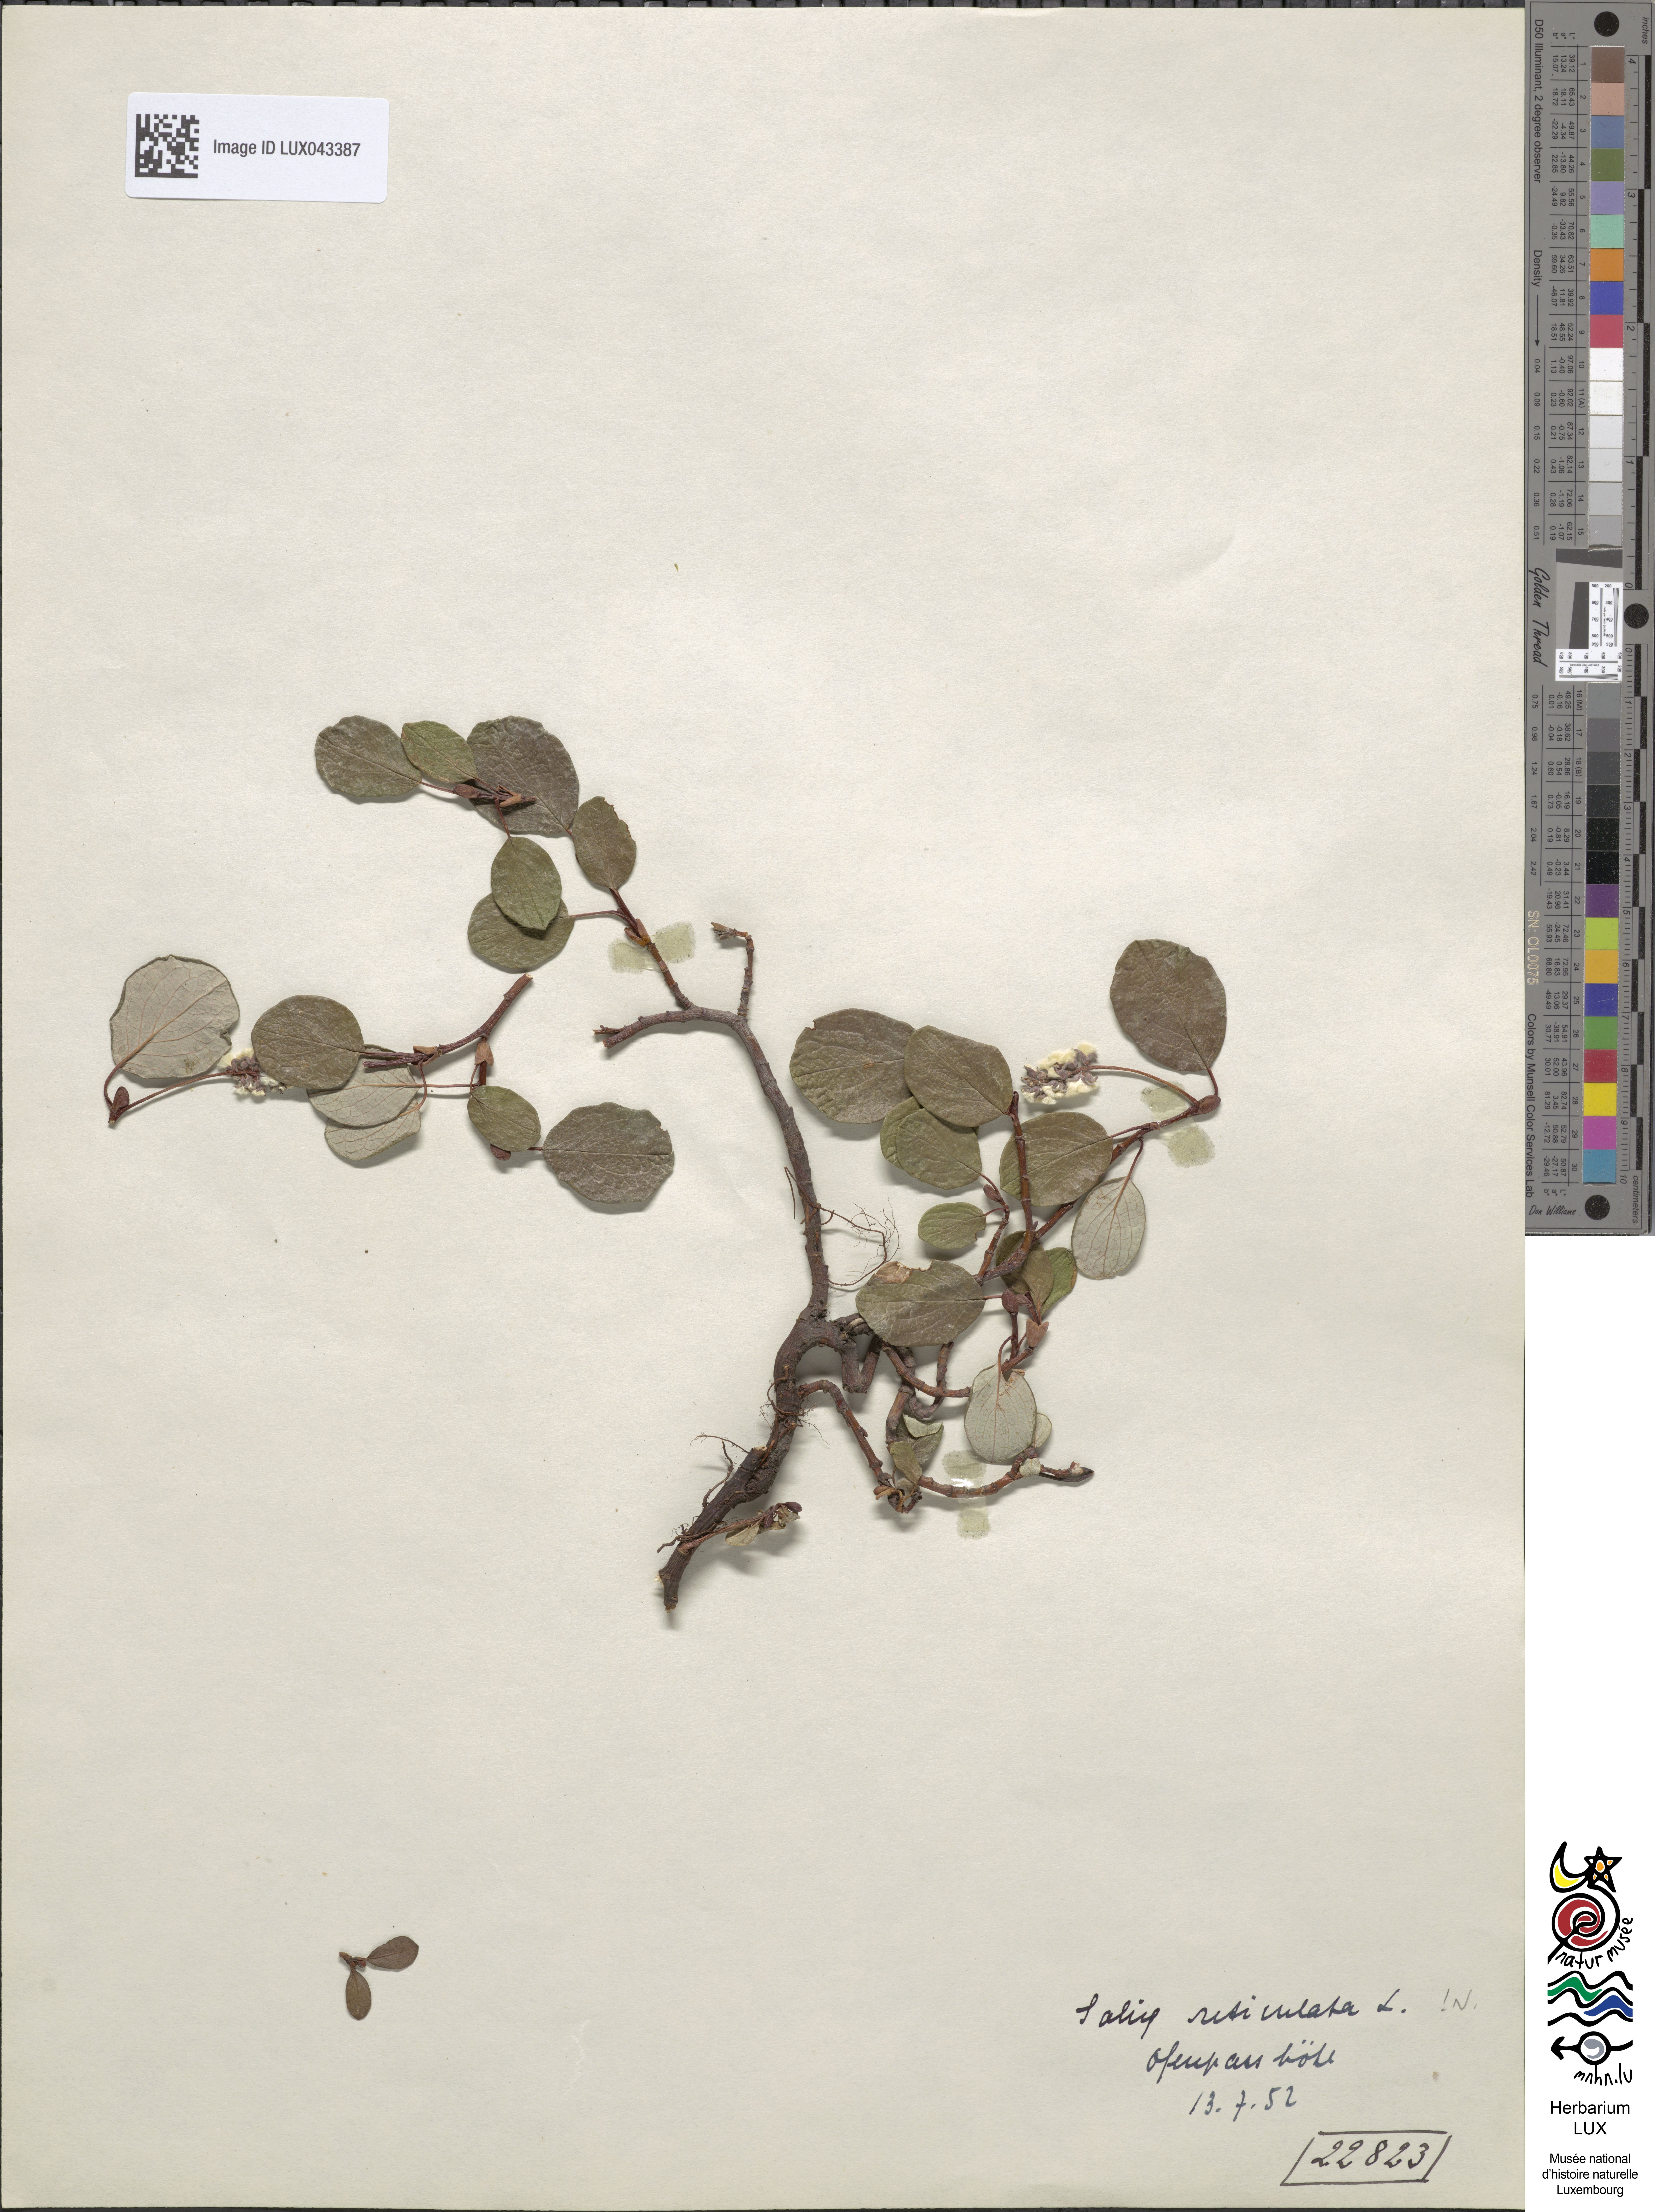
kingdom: Plantae
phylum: Tracheophyta
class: Magnoliopsida
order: Malpighiales
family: Salicaceae
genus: Salix
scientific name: Salix reticulata
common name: Net-leaved willow
